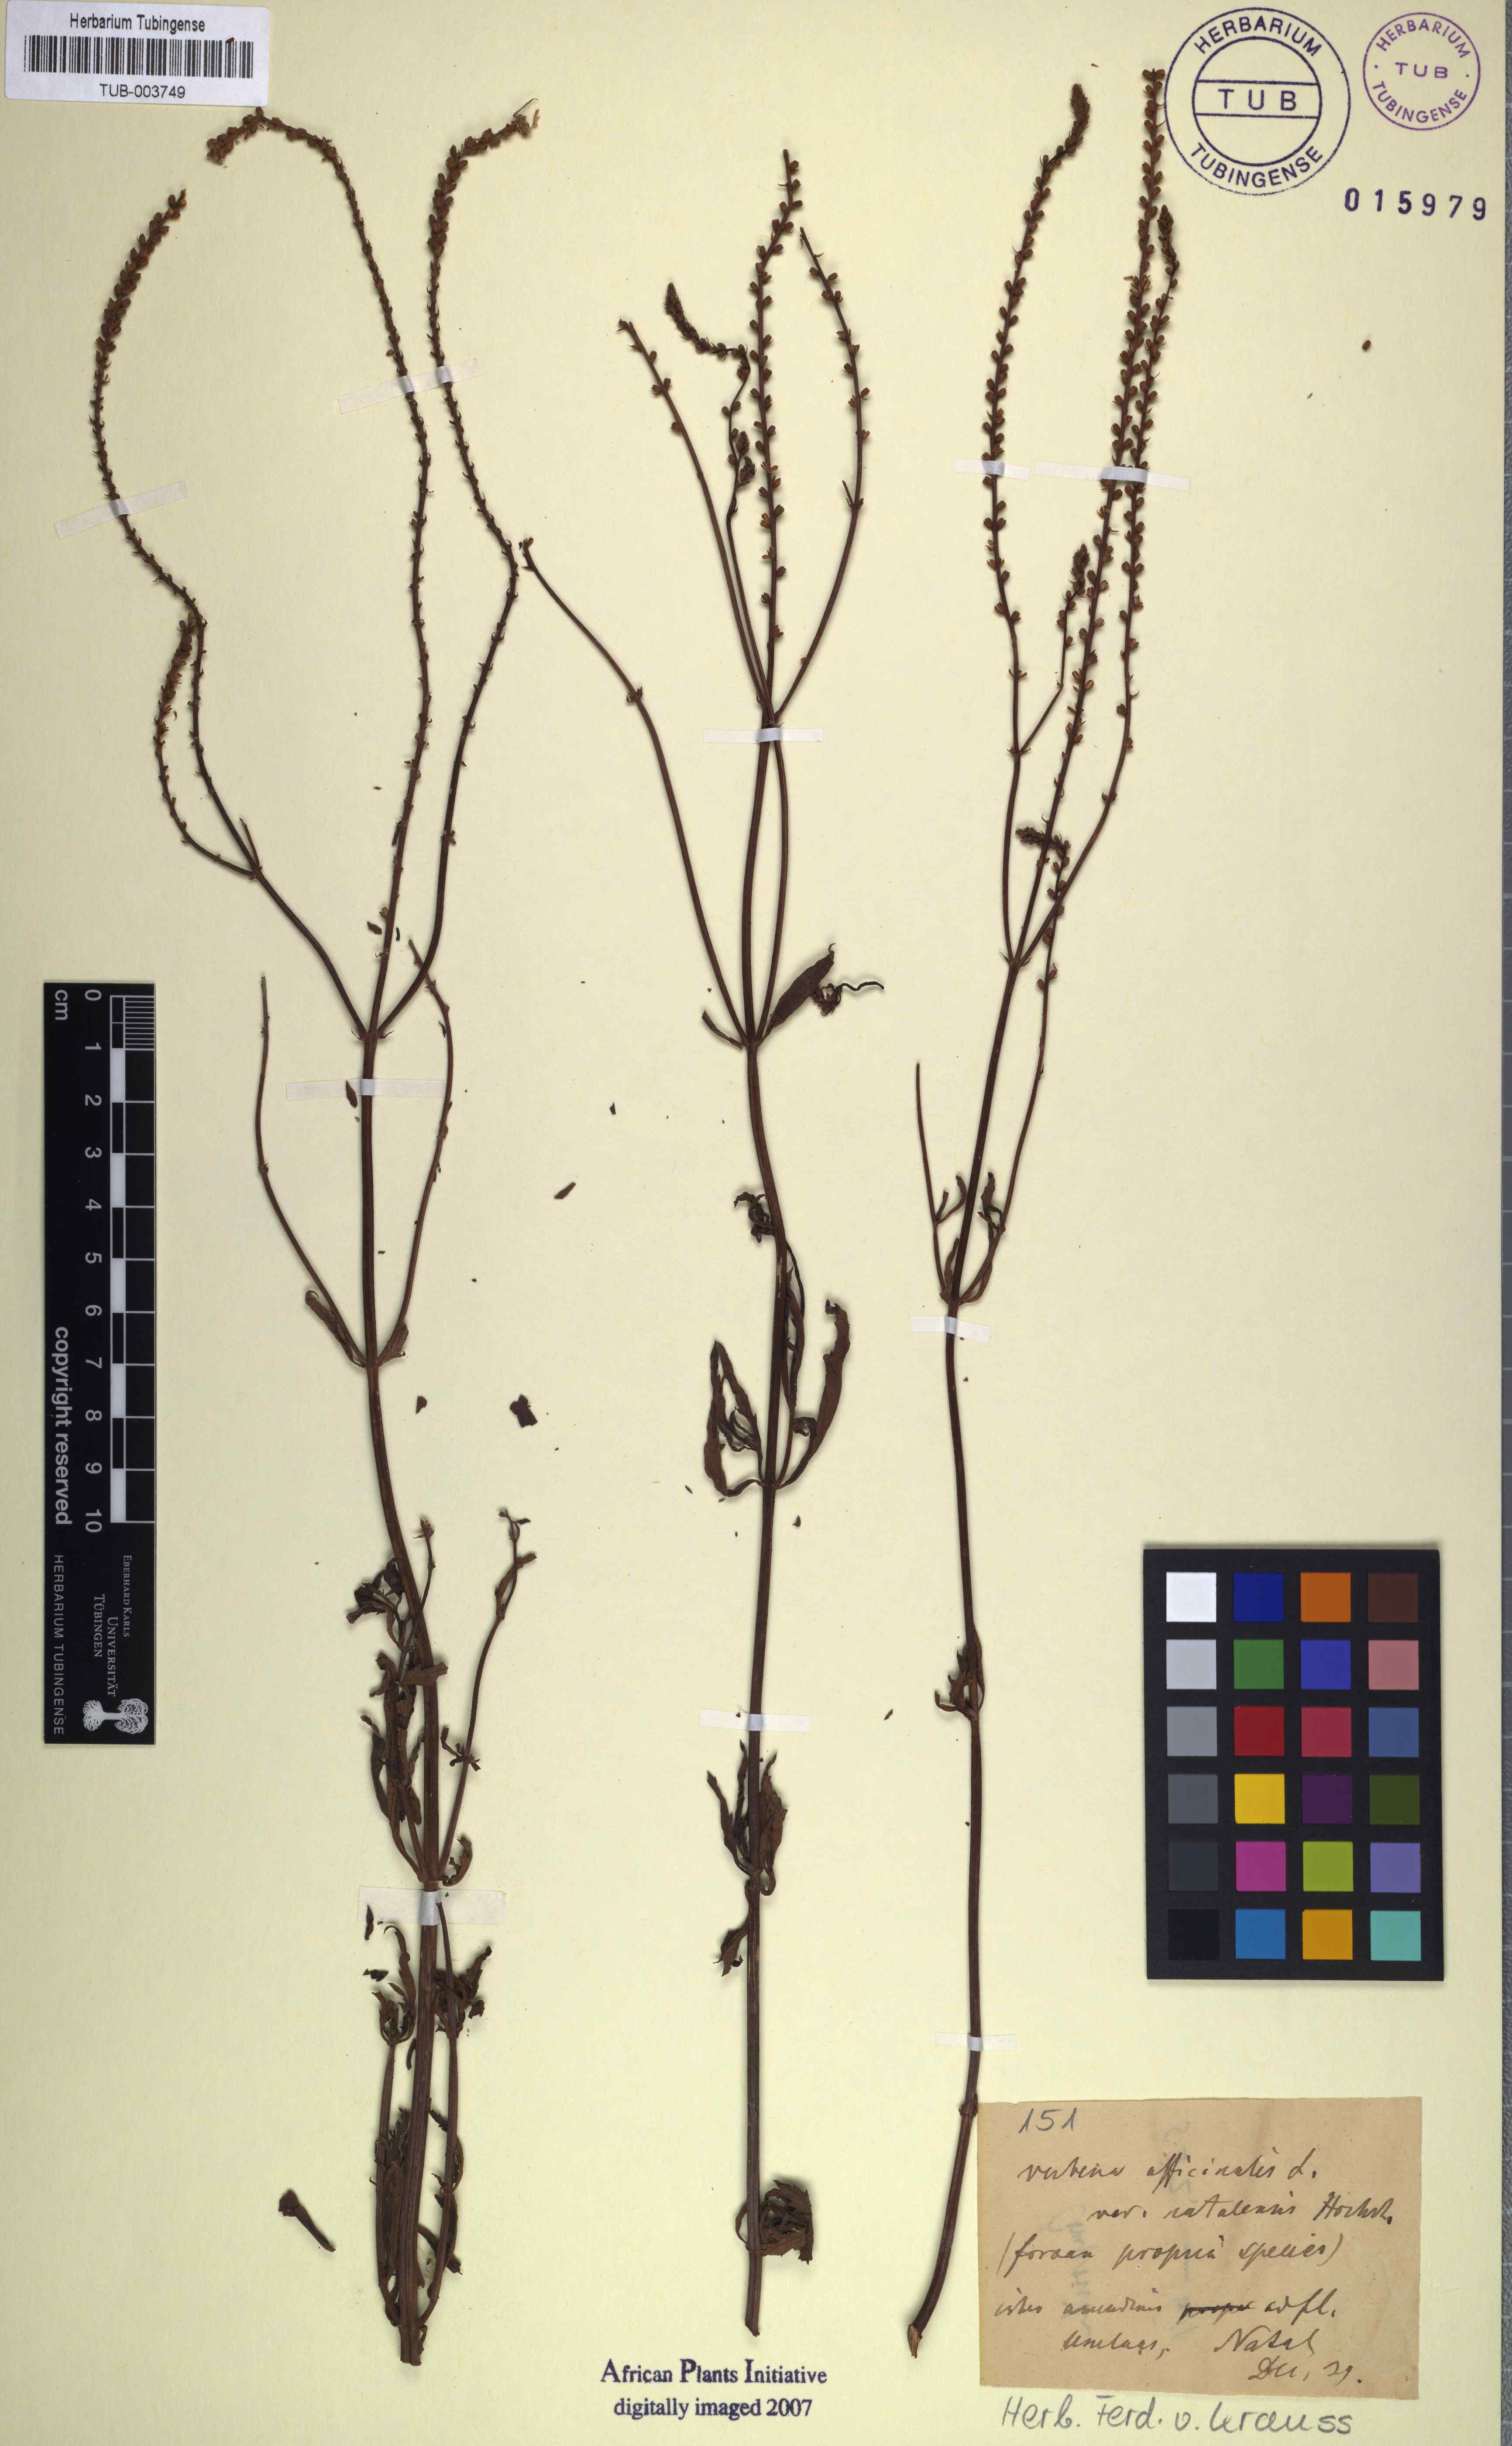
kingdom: Plantae
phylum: Tracheophyta
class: Magnoliopsida
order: Lamiales
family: Verbenaceae
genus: Verbena
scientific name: Verbena officinalis
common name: Vervain
